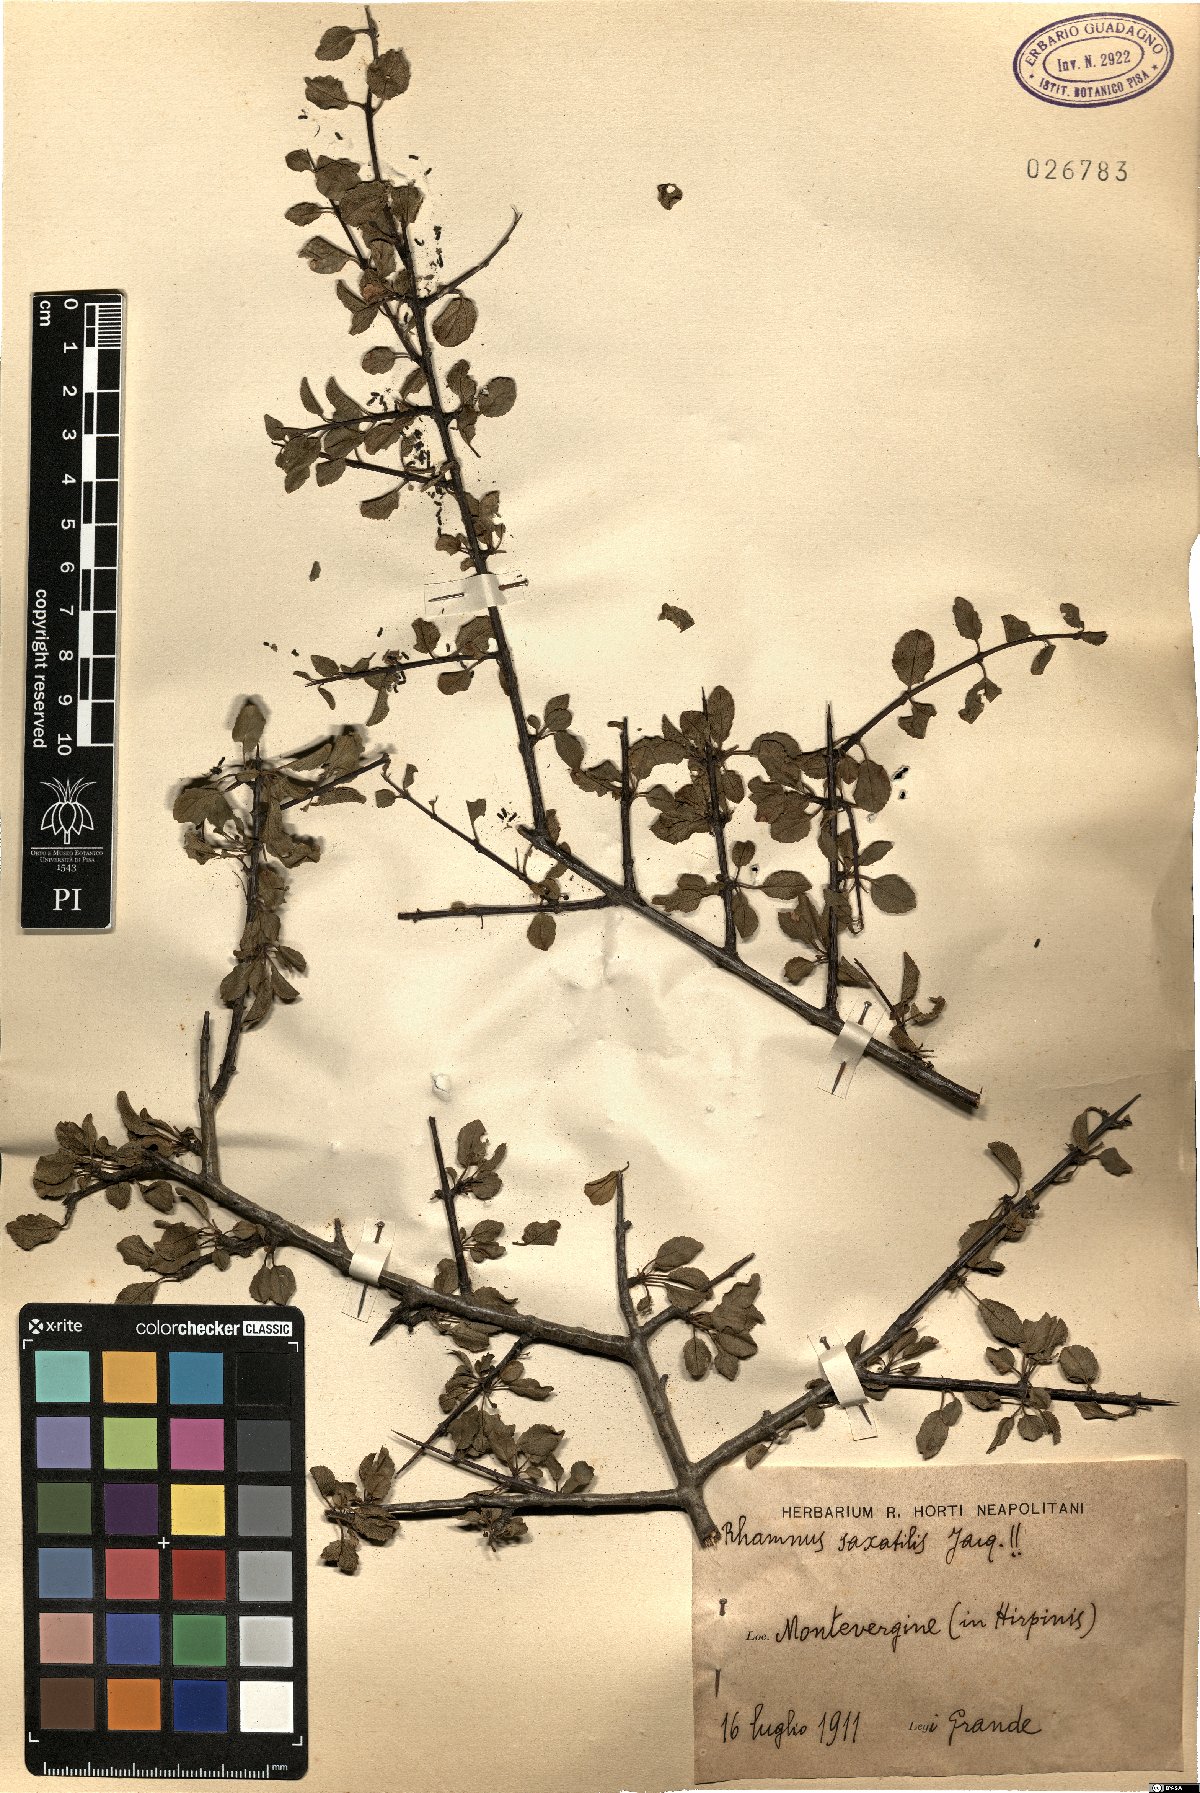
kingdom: Plantae
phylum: Tracheophyta
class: Magnoliopsida
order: Rosales
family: Rhamnaceae
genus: Rhamnus
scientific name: Rhamnus saxatilis
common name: Rock buckthorn
